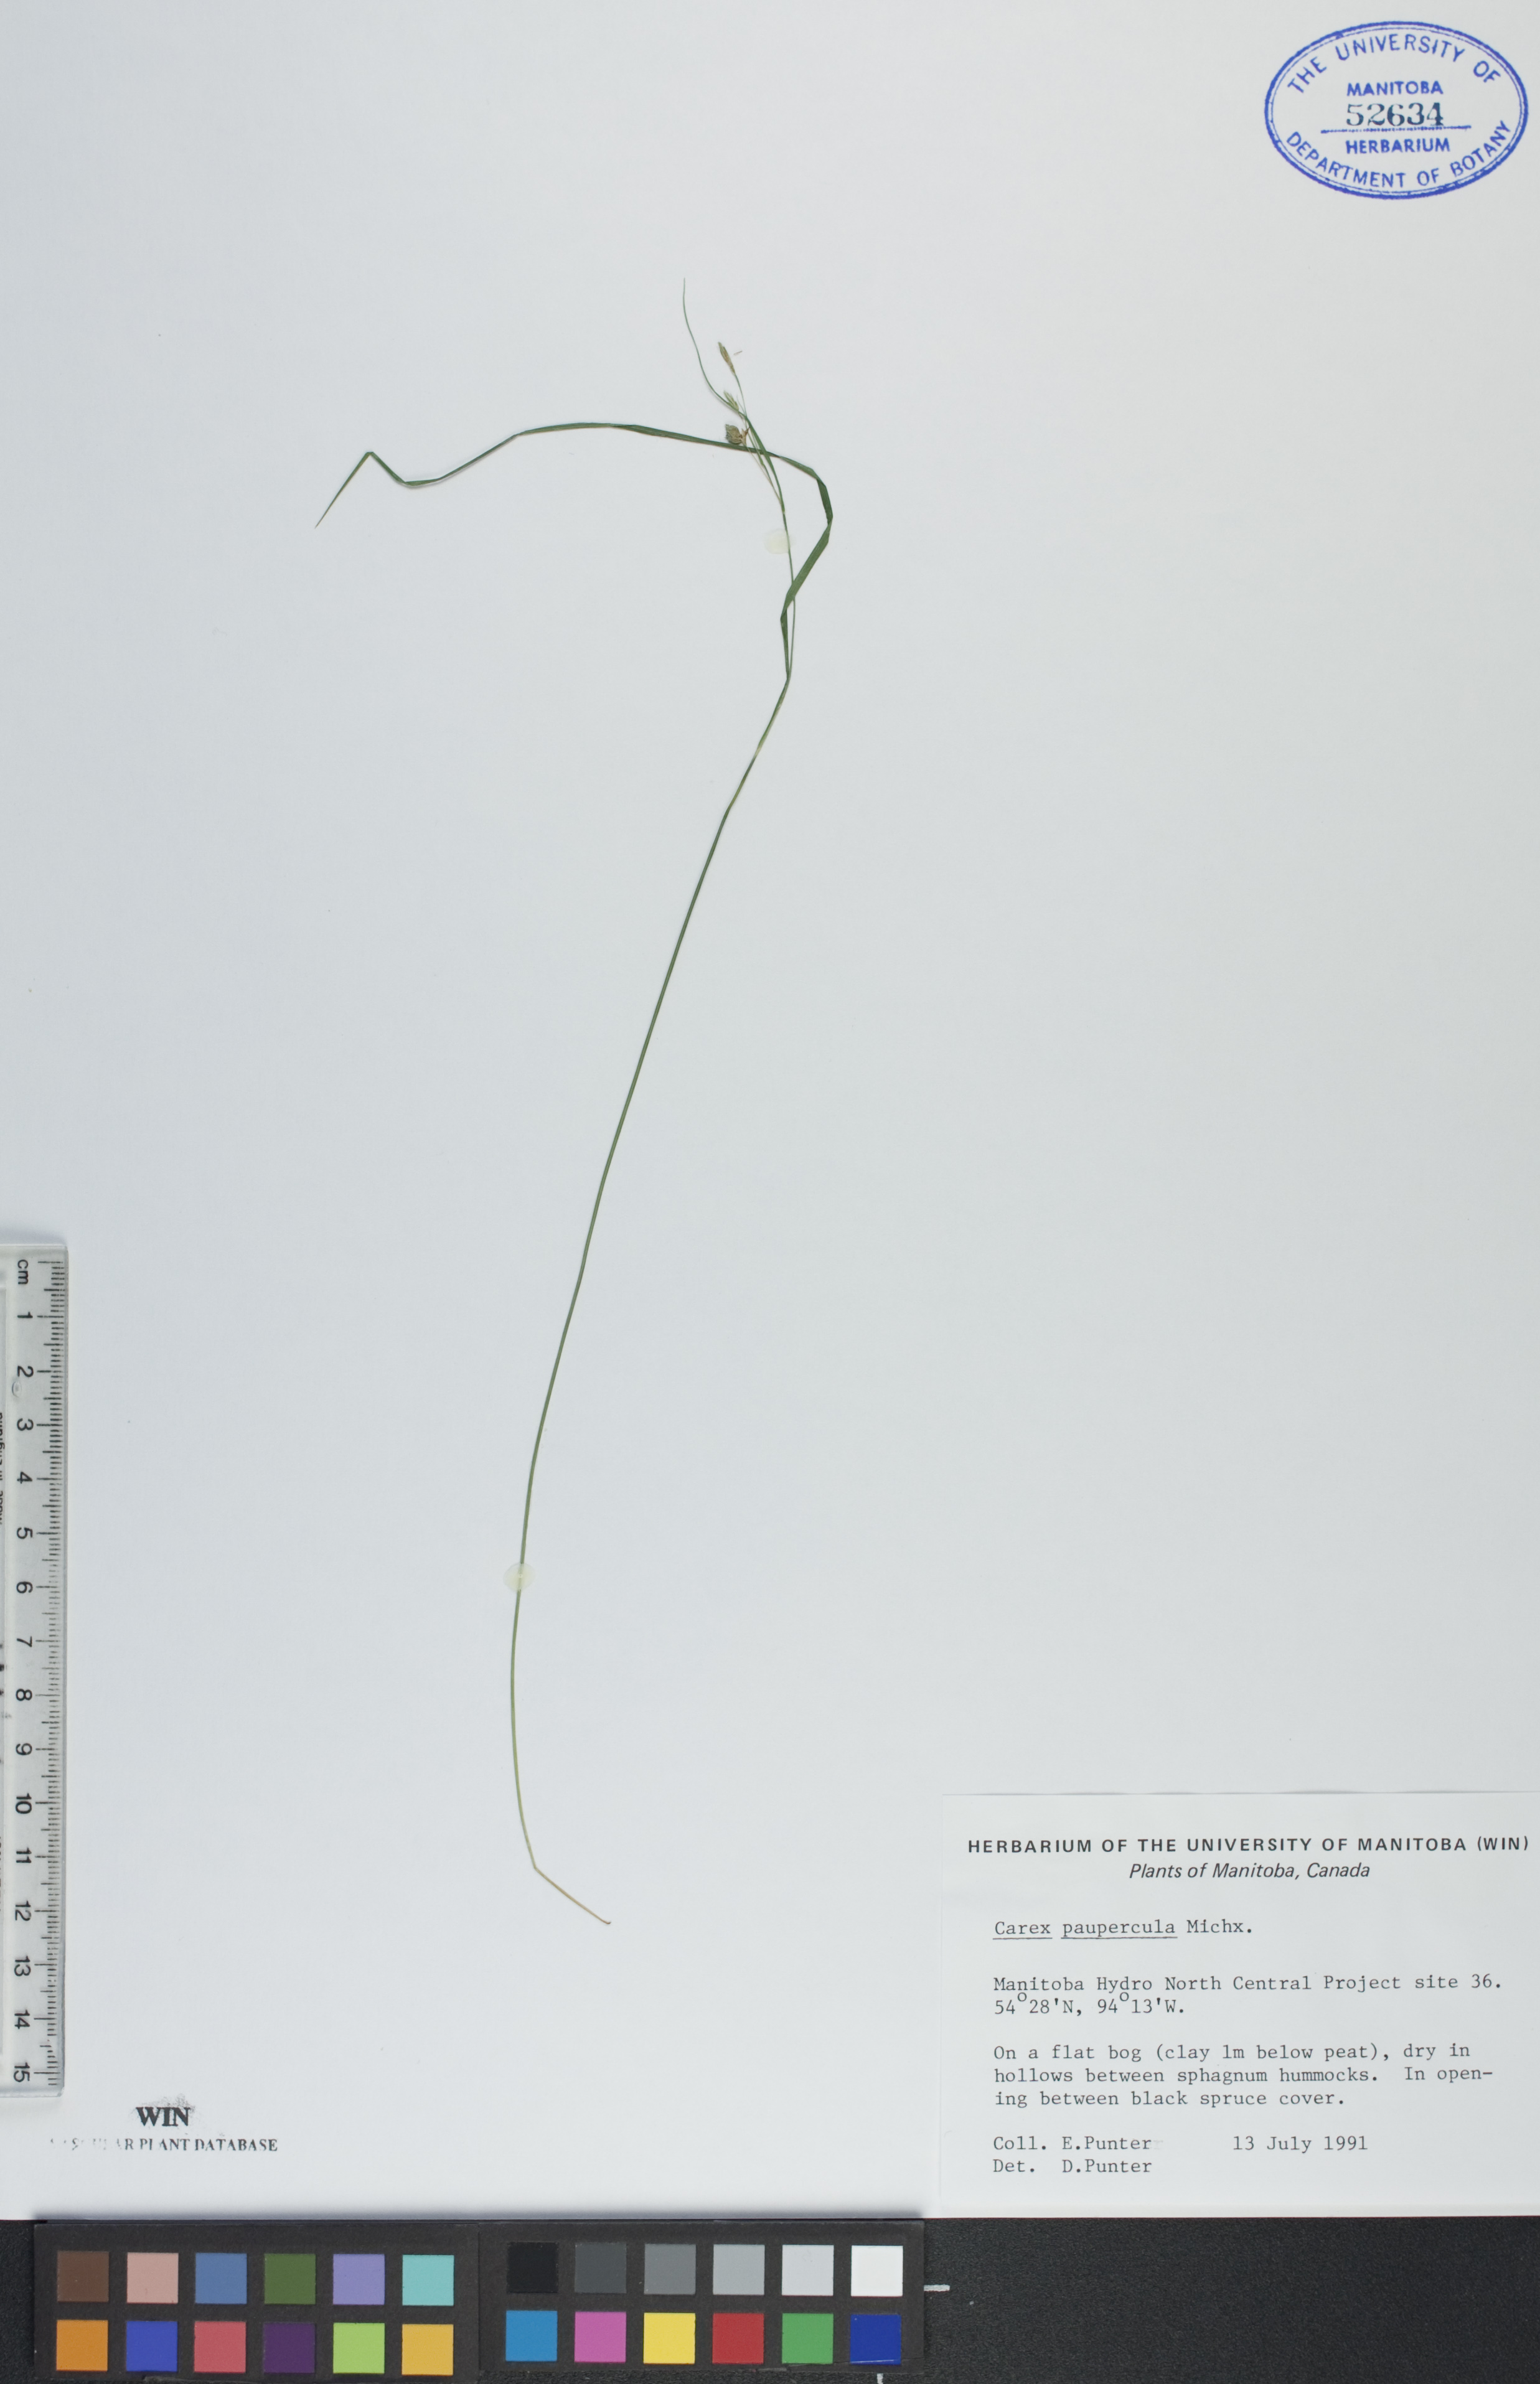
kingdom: Plantae
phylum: Tracheophyta
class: Liliopsida
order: Poales
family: Cyperaceae
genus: Carex
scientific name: Carex magellanica
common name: Bog sedge
